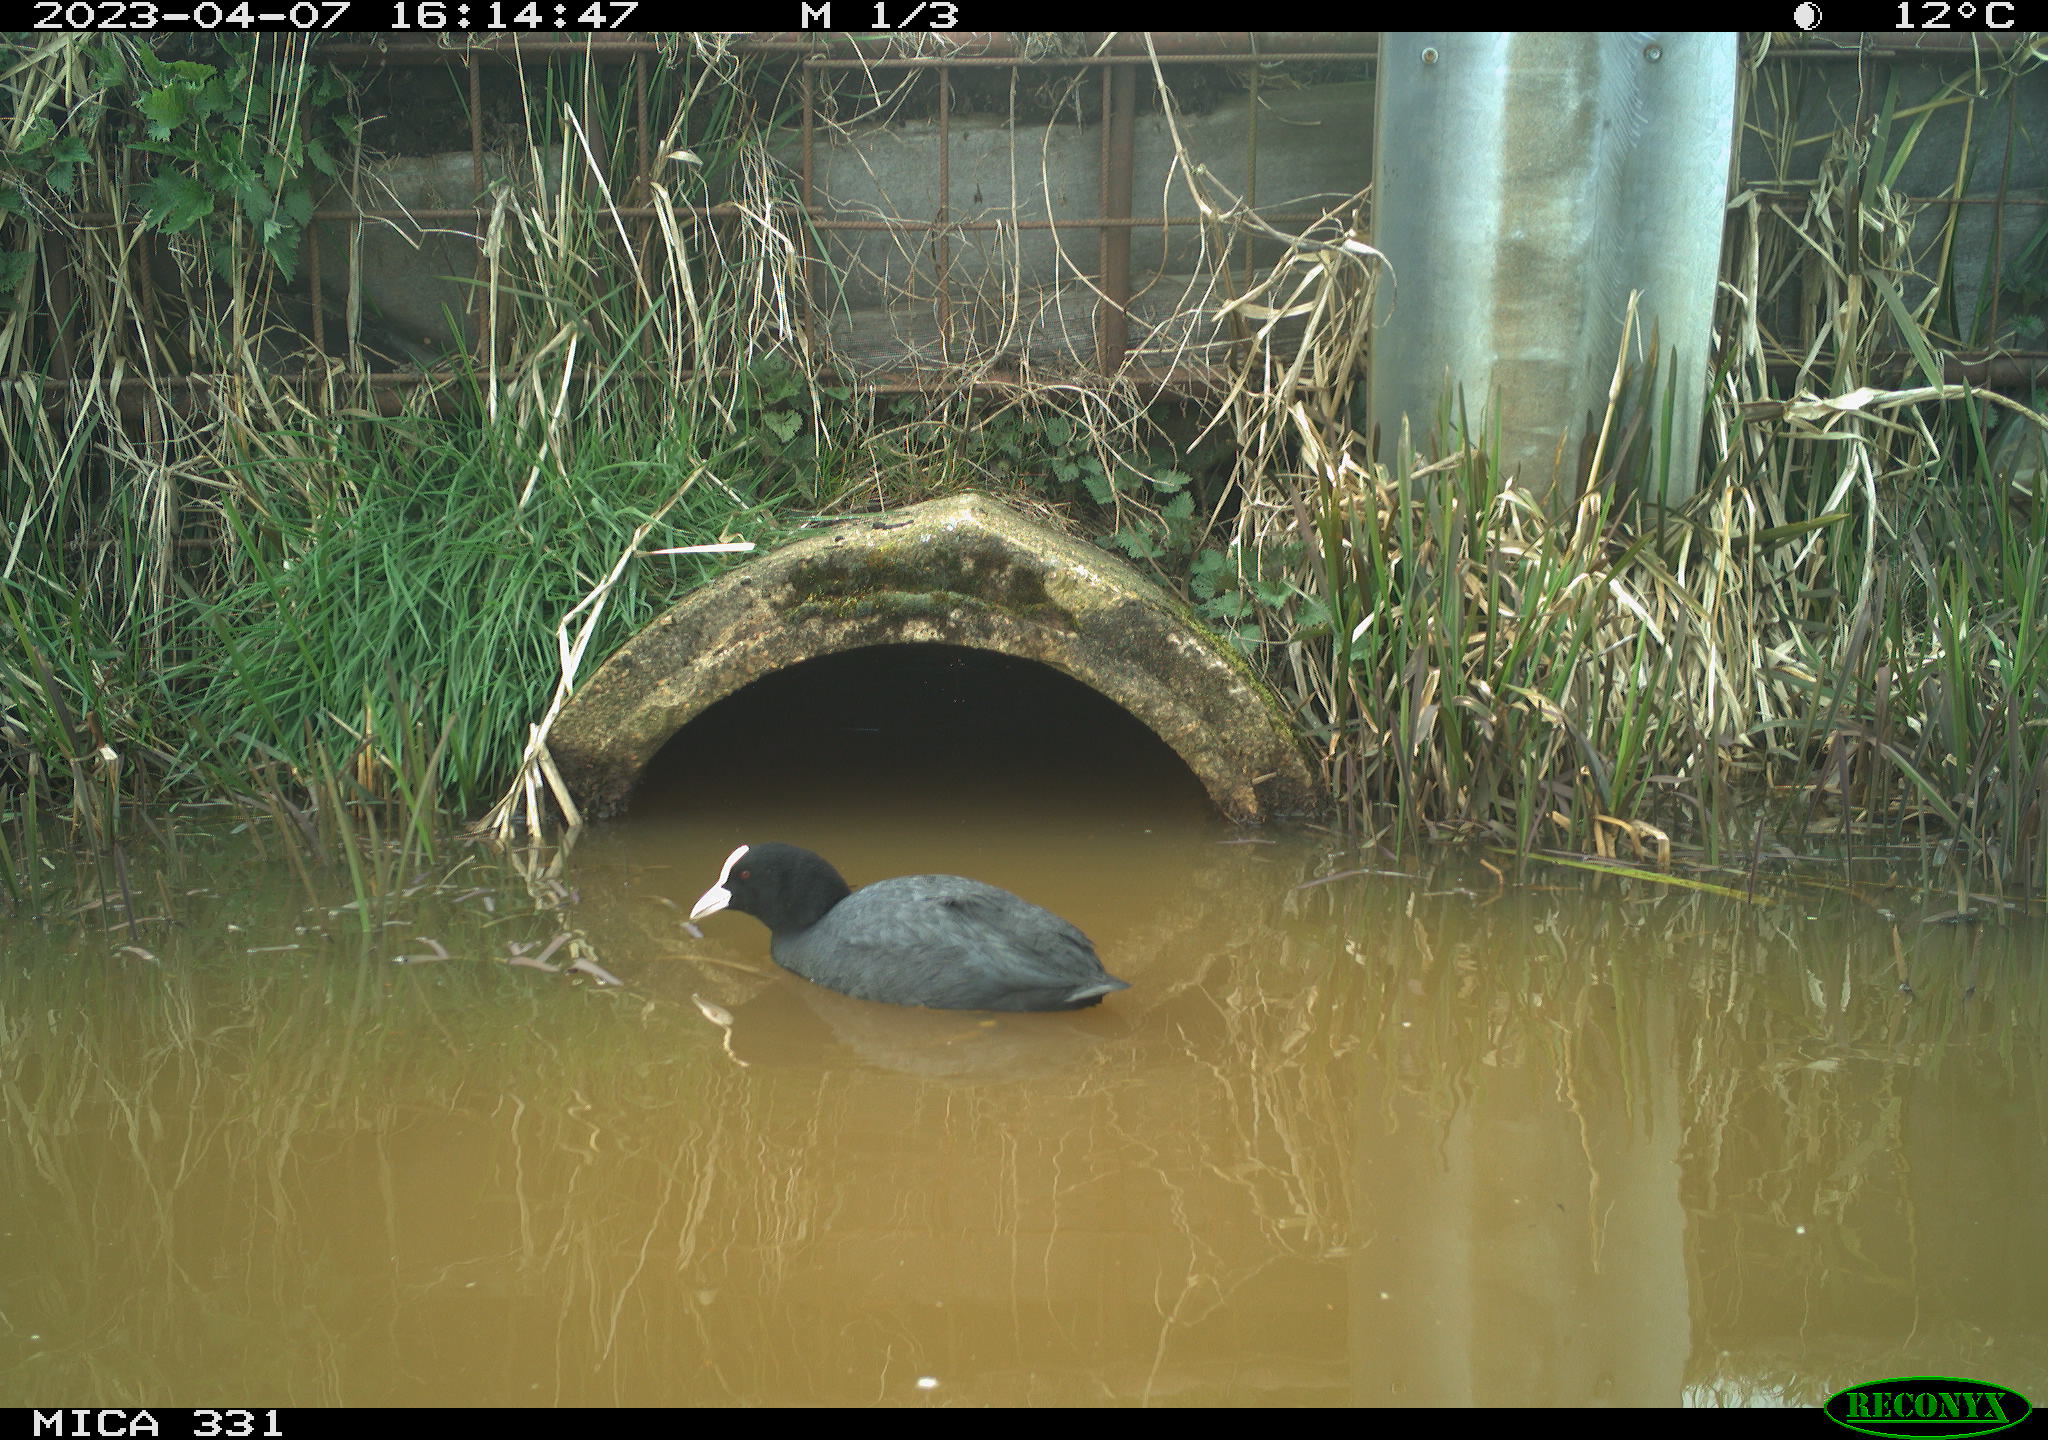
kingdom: Animalia
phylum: Chordata
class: Aves
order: Gruiformes
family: Rallidae
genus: Fulica
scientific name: Fulica atra
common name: Eurasian coot
